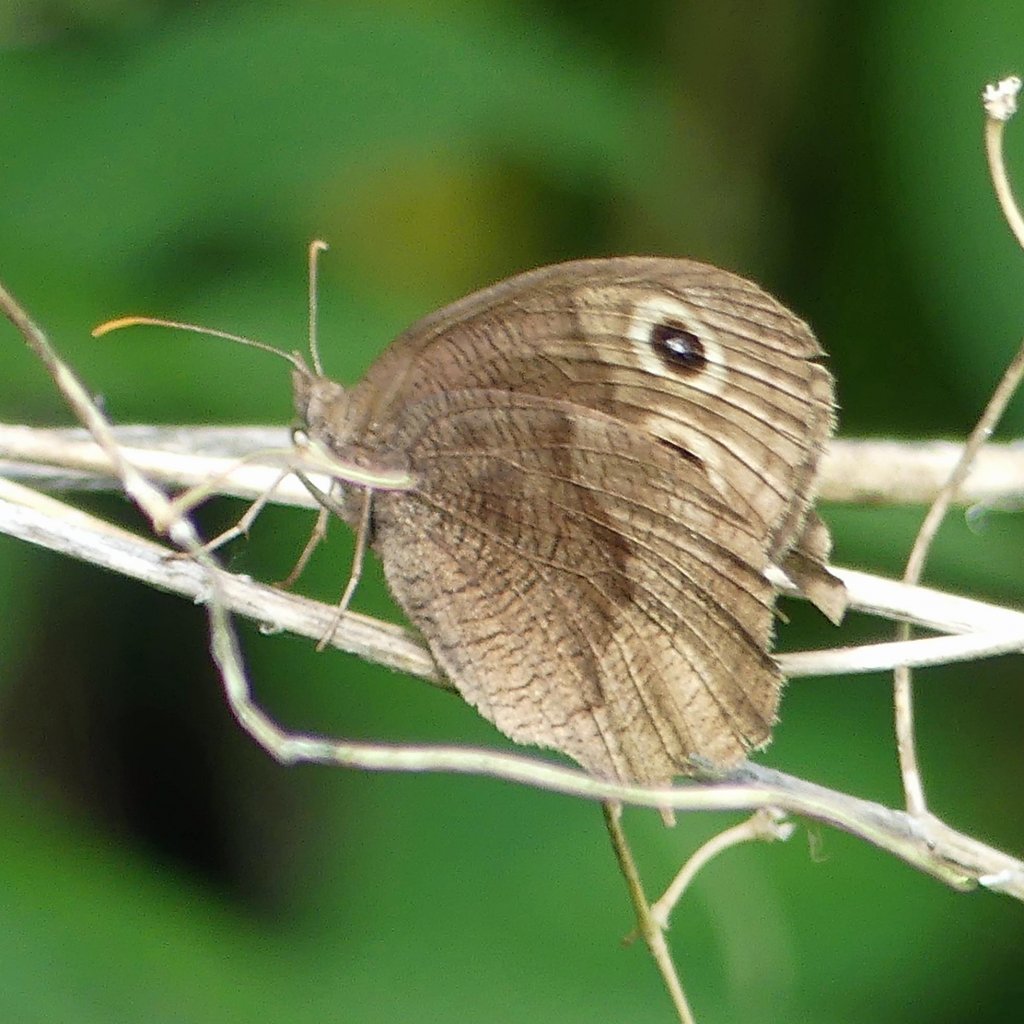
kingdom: Animalia
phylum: Arthropoda
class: Insecta
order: Lepidoptera
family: Nymphalidae
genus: Cercyonis
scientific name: Cercyonis pegala
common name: Common Wood-Nymph
